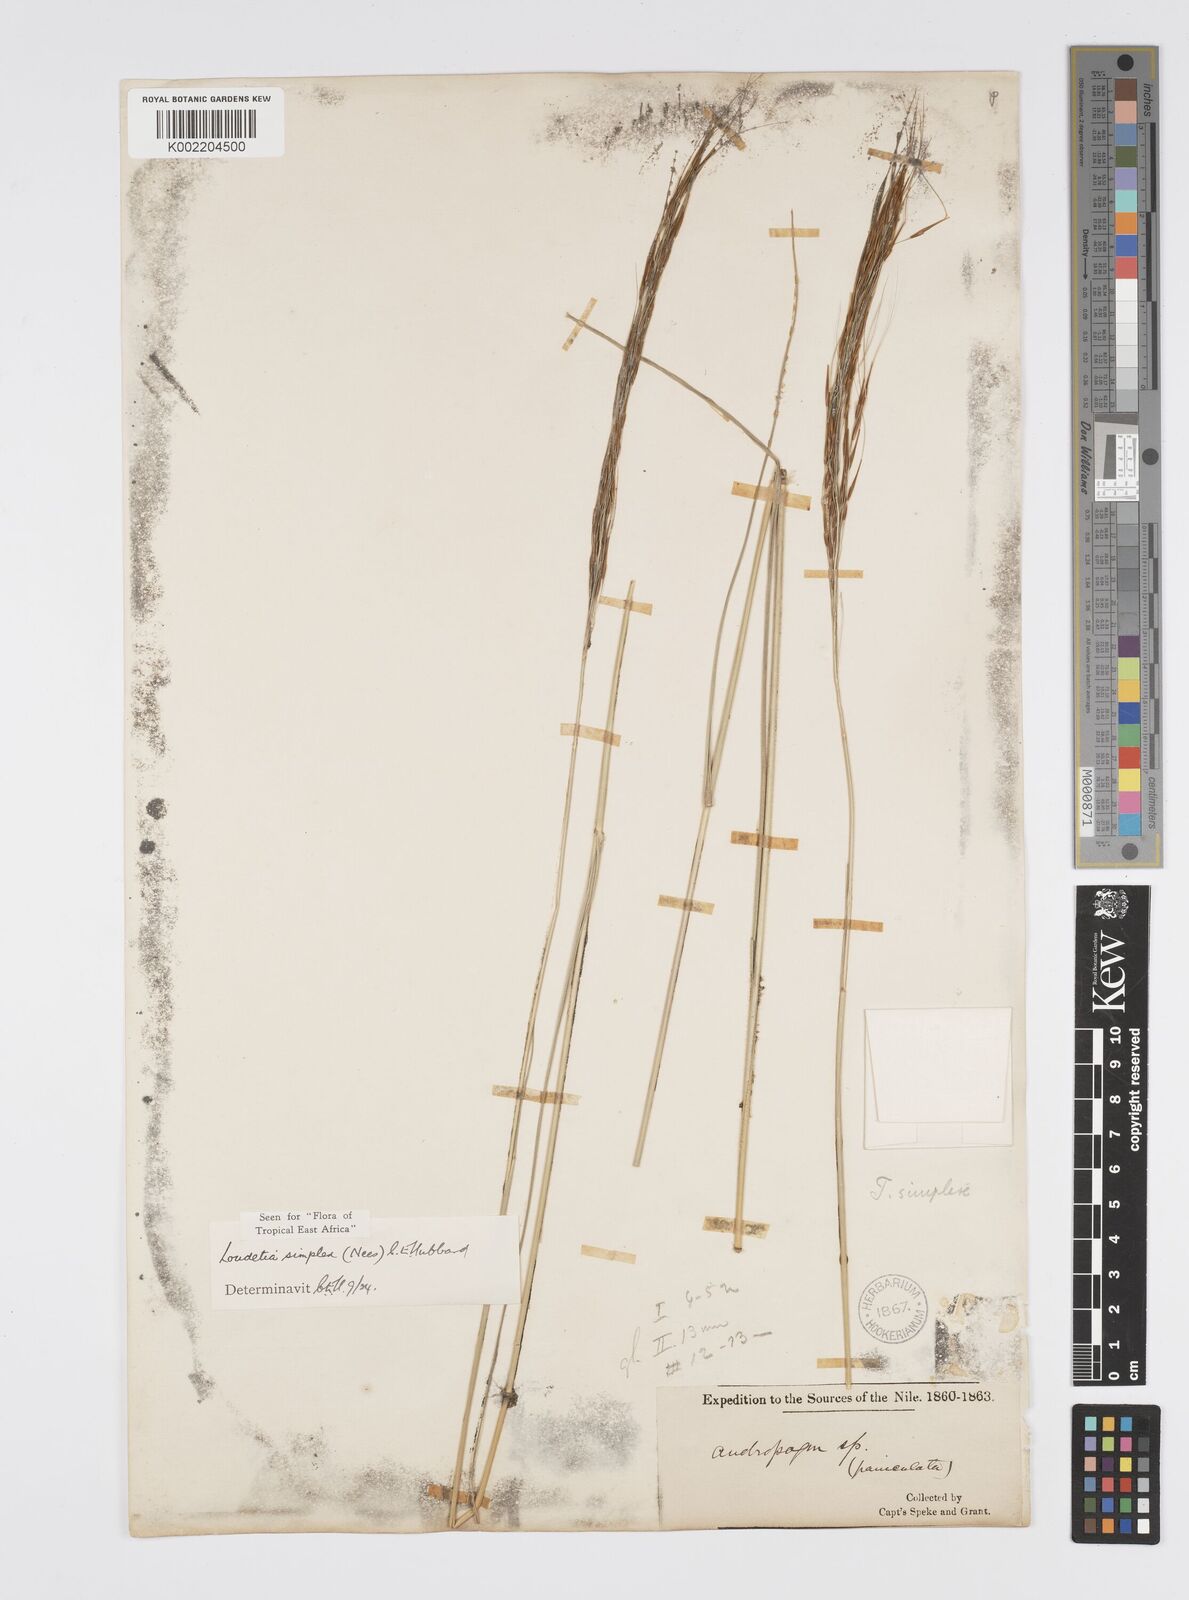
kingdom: Plantae
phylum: Tracheophyta
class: Liliopsida
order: Poales
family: Poaceae
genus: Loudetia
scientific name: Loudetia simplex
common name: Common russet grass
